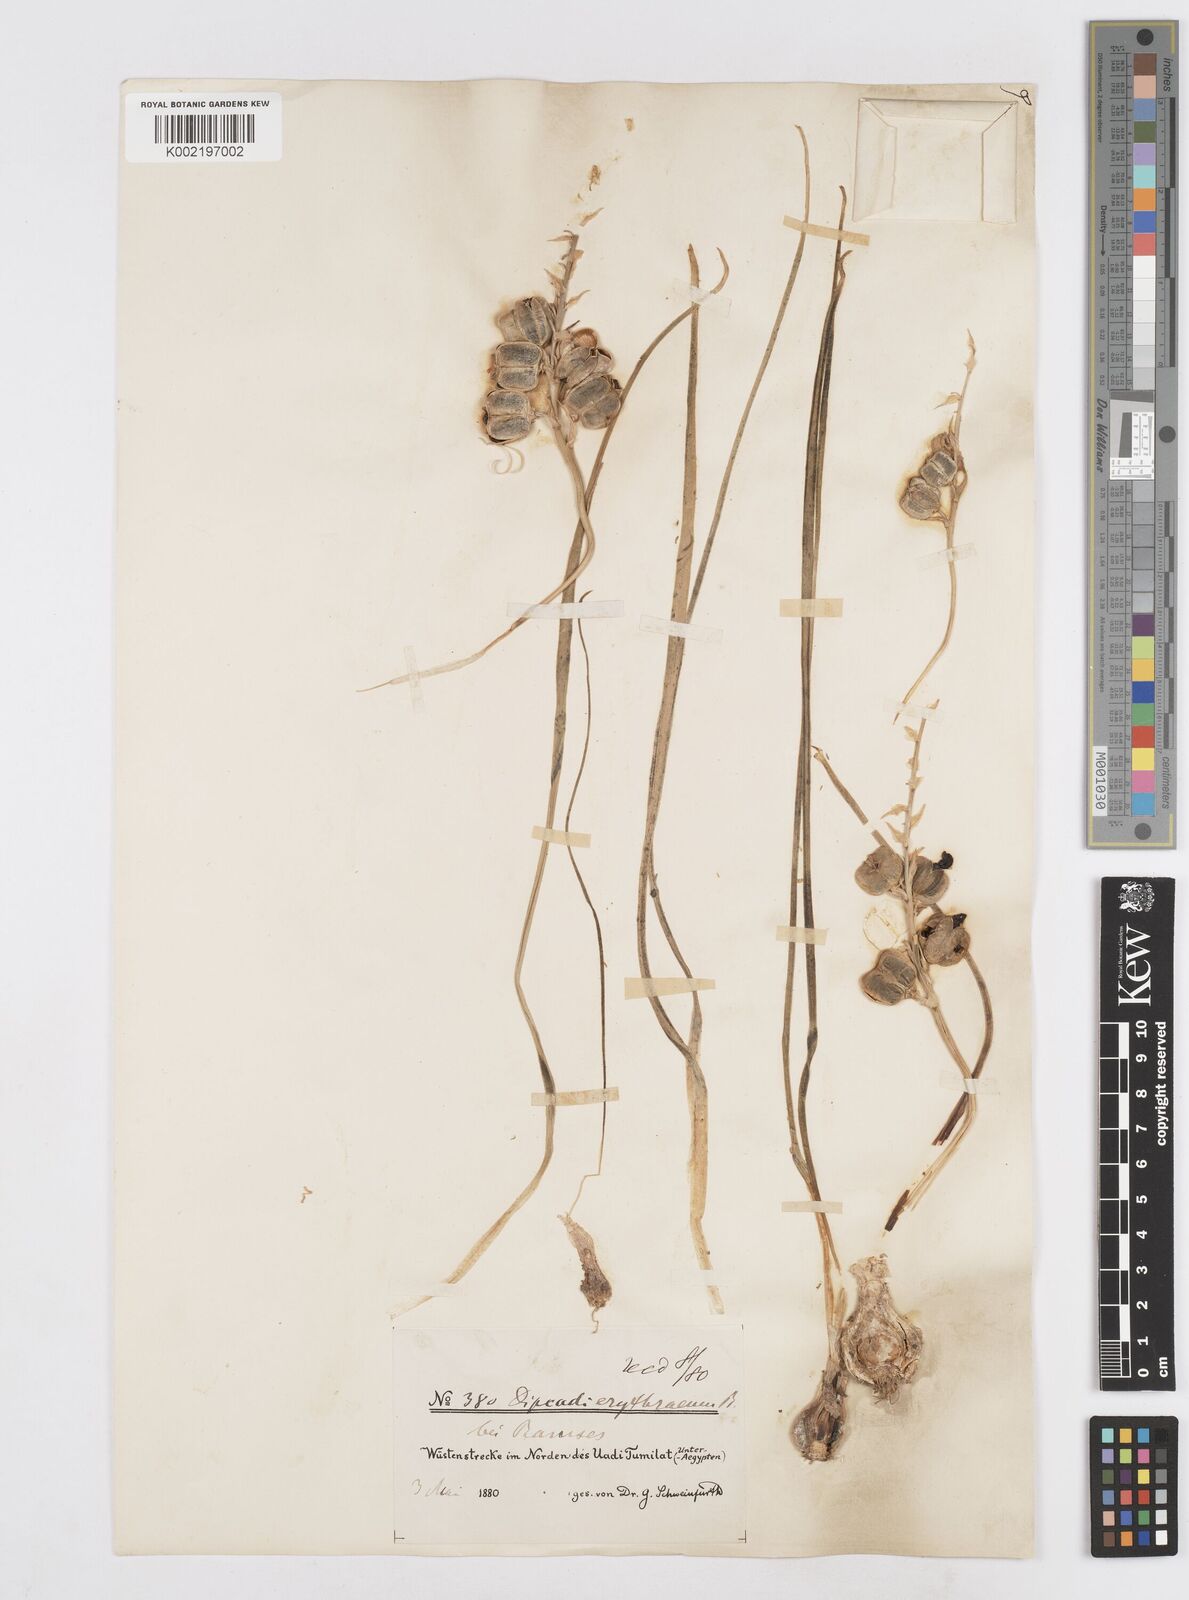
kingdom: Plantae
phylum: Tracheophyta
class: Liliopsida
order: Asparagales
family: Asparagaceae
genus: Dipcadi
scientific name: Dipcadi erythraeum
